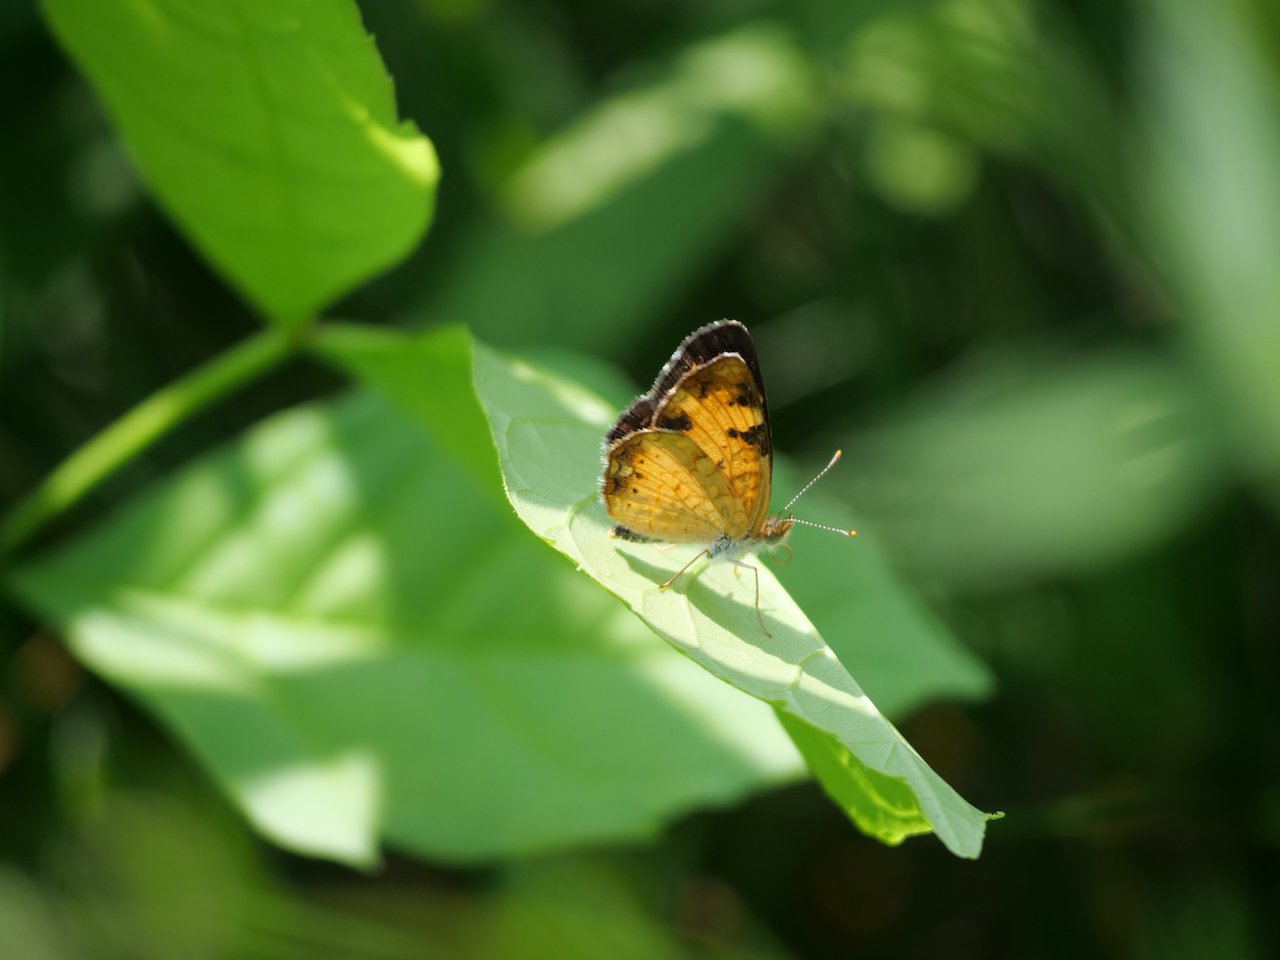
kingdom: Animalia
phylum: Arthropoda
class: Insecta
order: Lepidoptera
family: Nymphalidae
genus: Phyciodes
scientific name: Phyciodes tharos
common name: Northern Crescent
